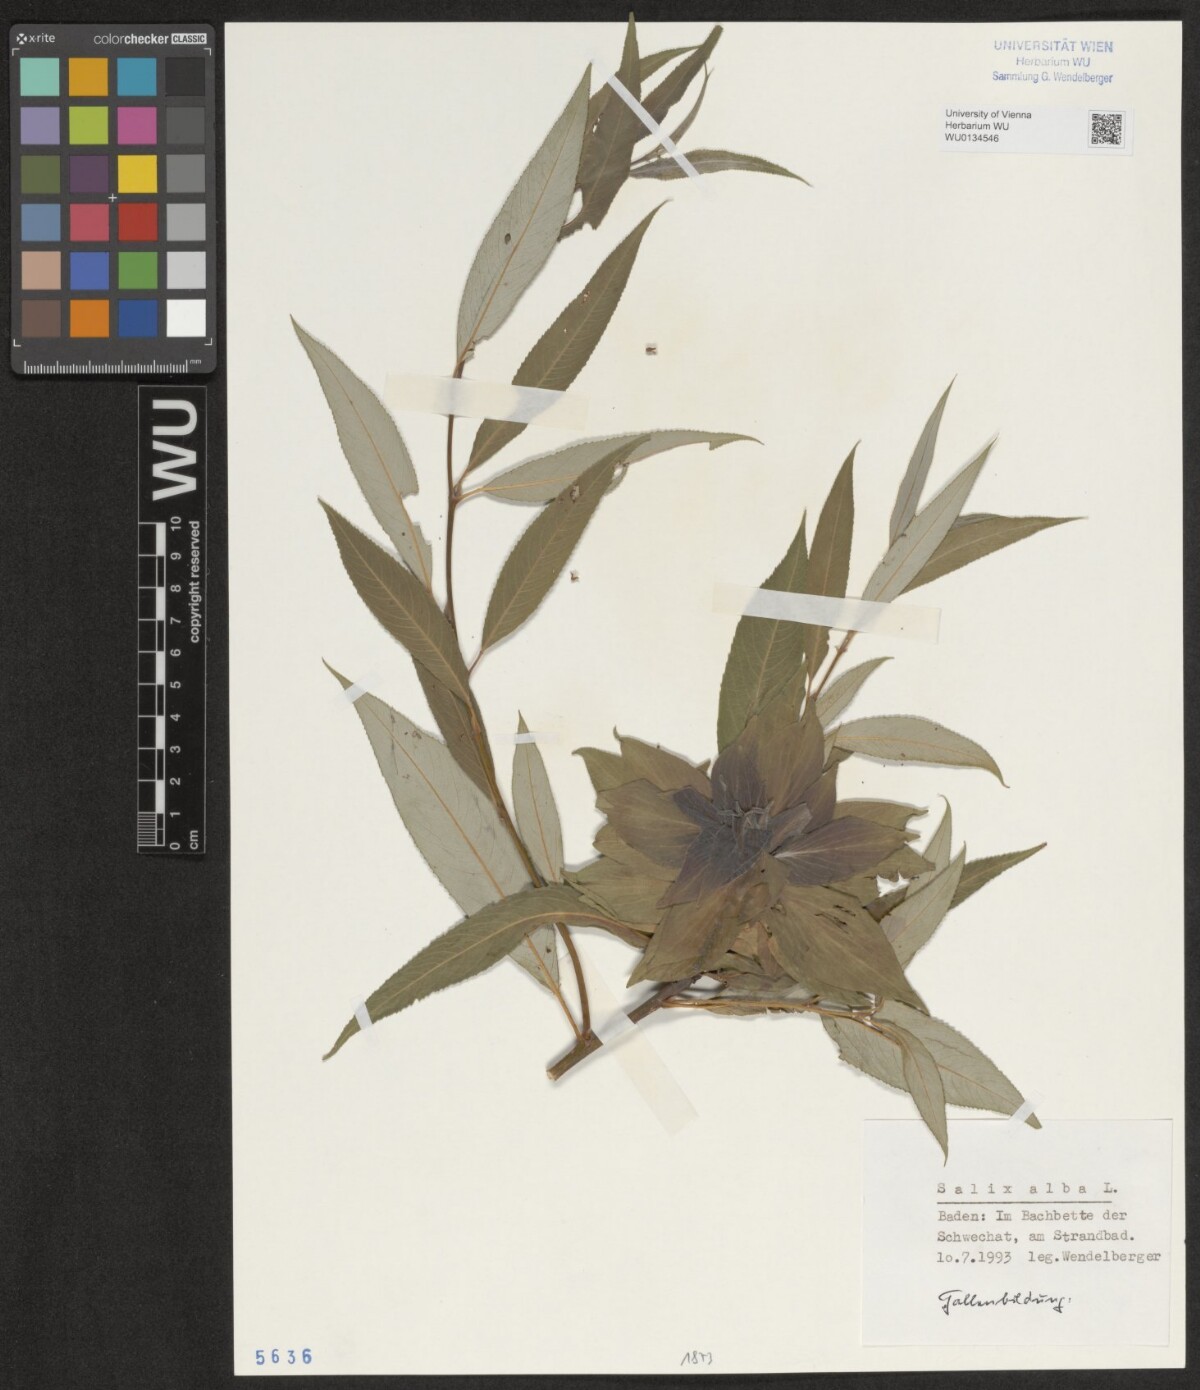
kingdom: Plantae
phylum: Tracheophyta
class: Magnoliopsida
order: Malpighiales
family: Salicaceae
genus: Salix
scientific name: Salix alba
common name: White willow
